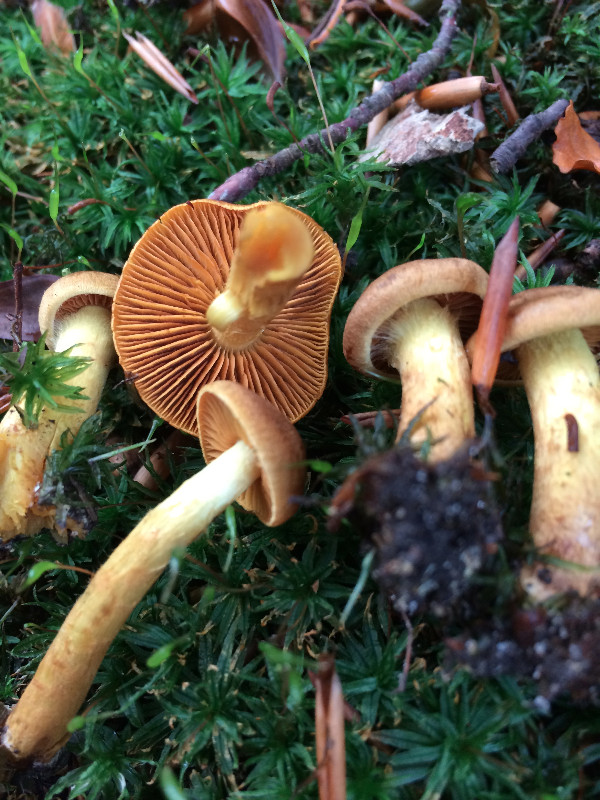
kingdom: Fungi
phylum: Basidiomycota
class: Agaricomycetes
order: Agaricales
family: Cortinariaceae
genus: Cortinarius
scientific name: Cortinarius malicorius
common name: grønkødet slørhat
